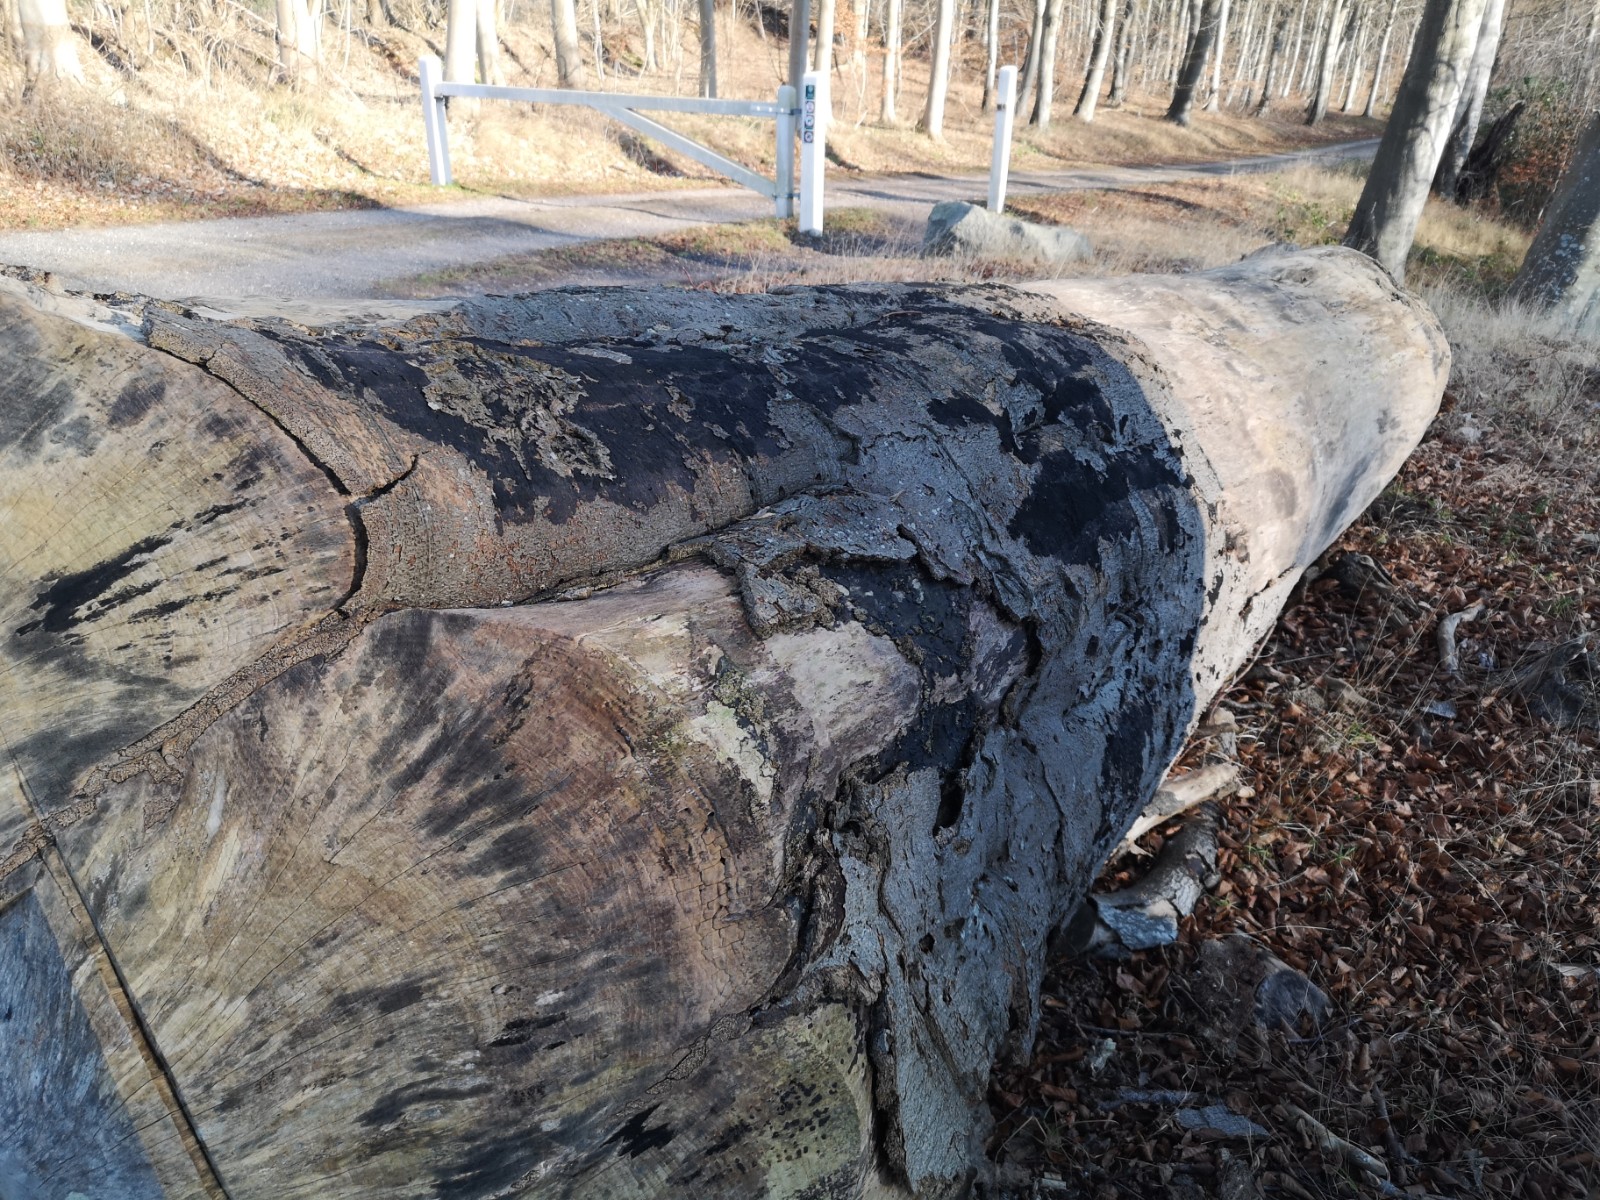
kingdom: Fungi
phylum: Ascomycota
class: Sordariomycetes
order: Xylariales
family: Diatrypaceae
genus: Eutypa
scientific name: Eutypa spinosa
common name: grov kulskorpe
